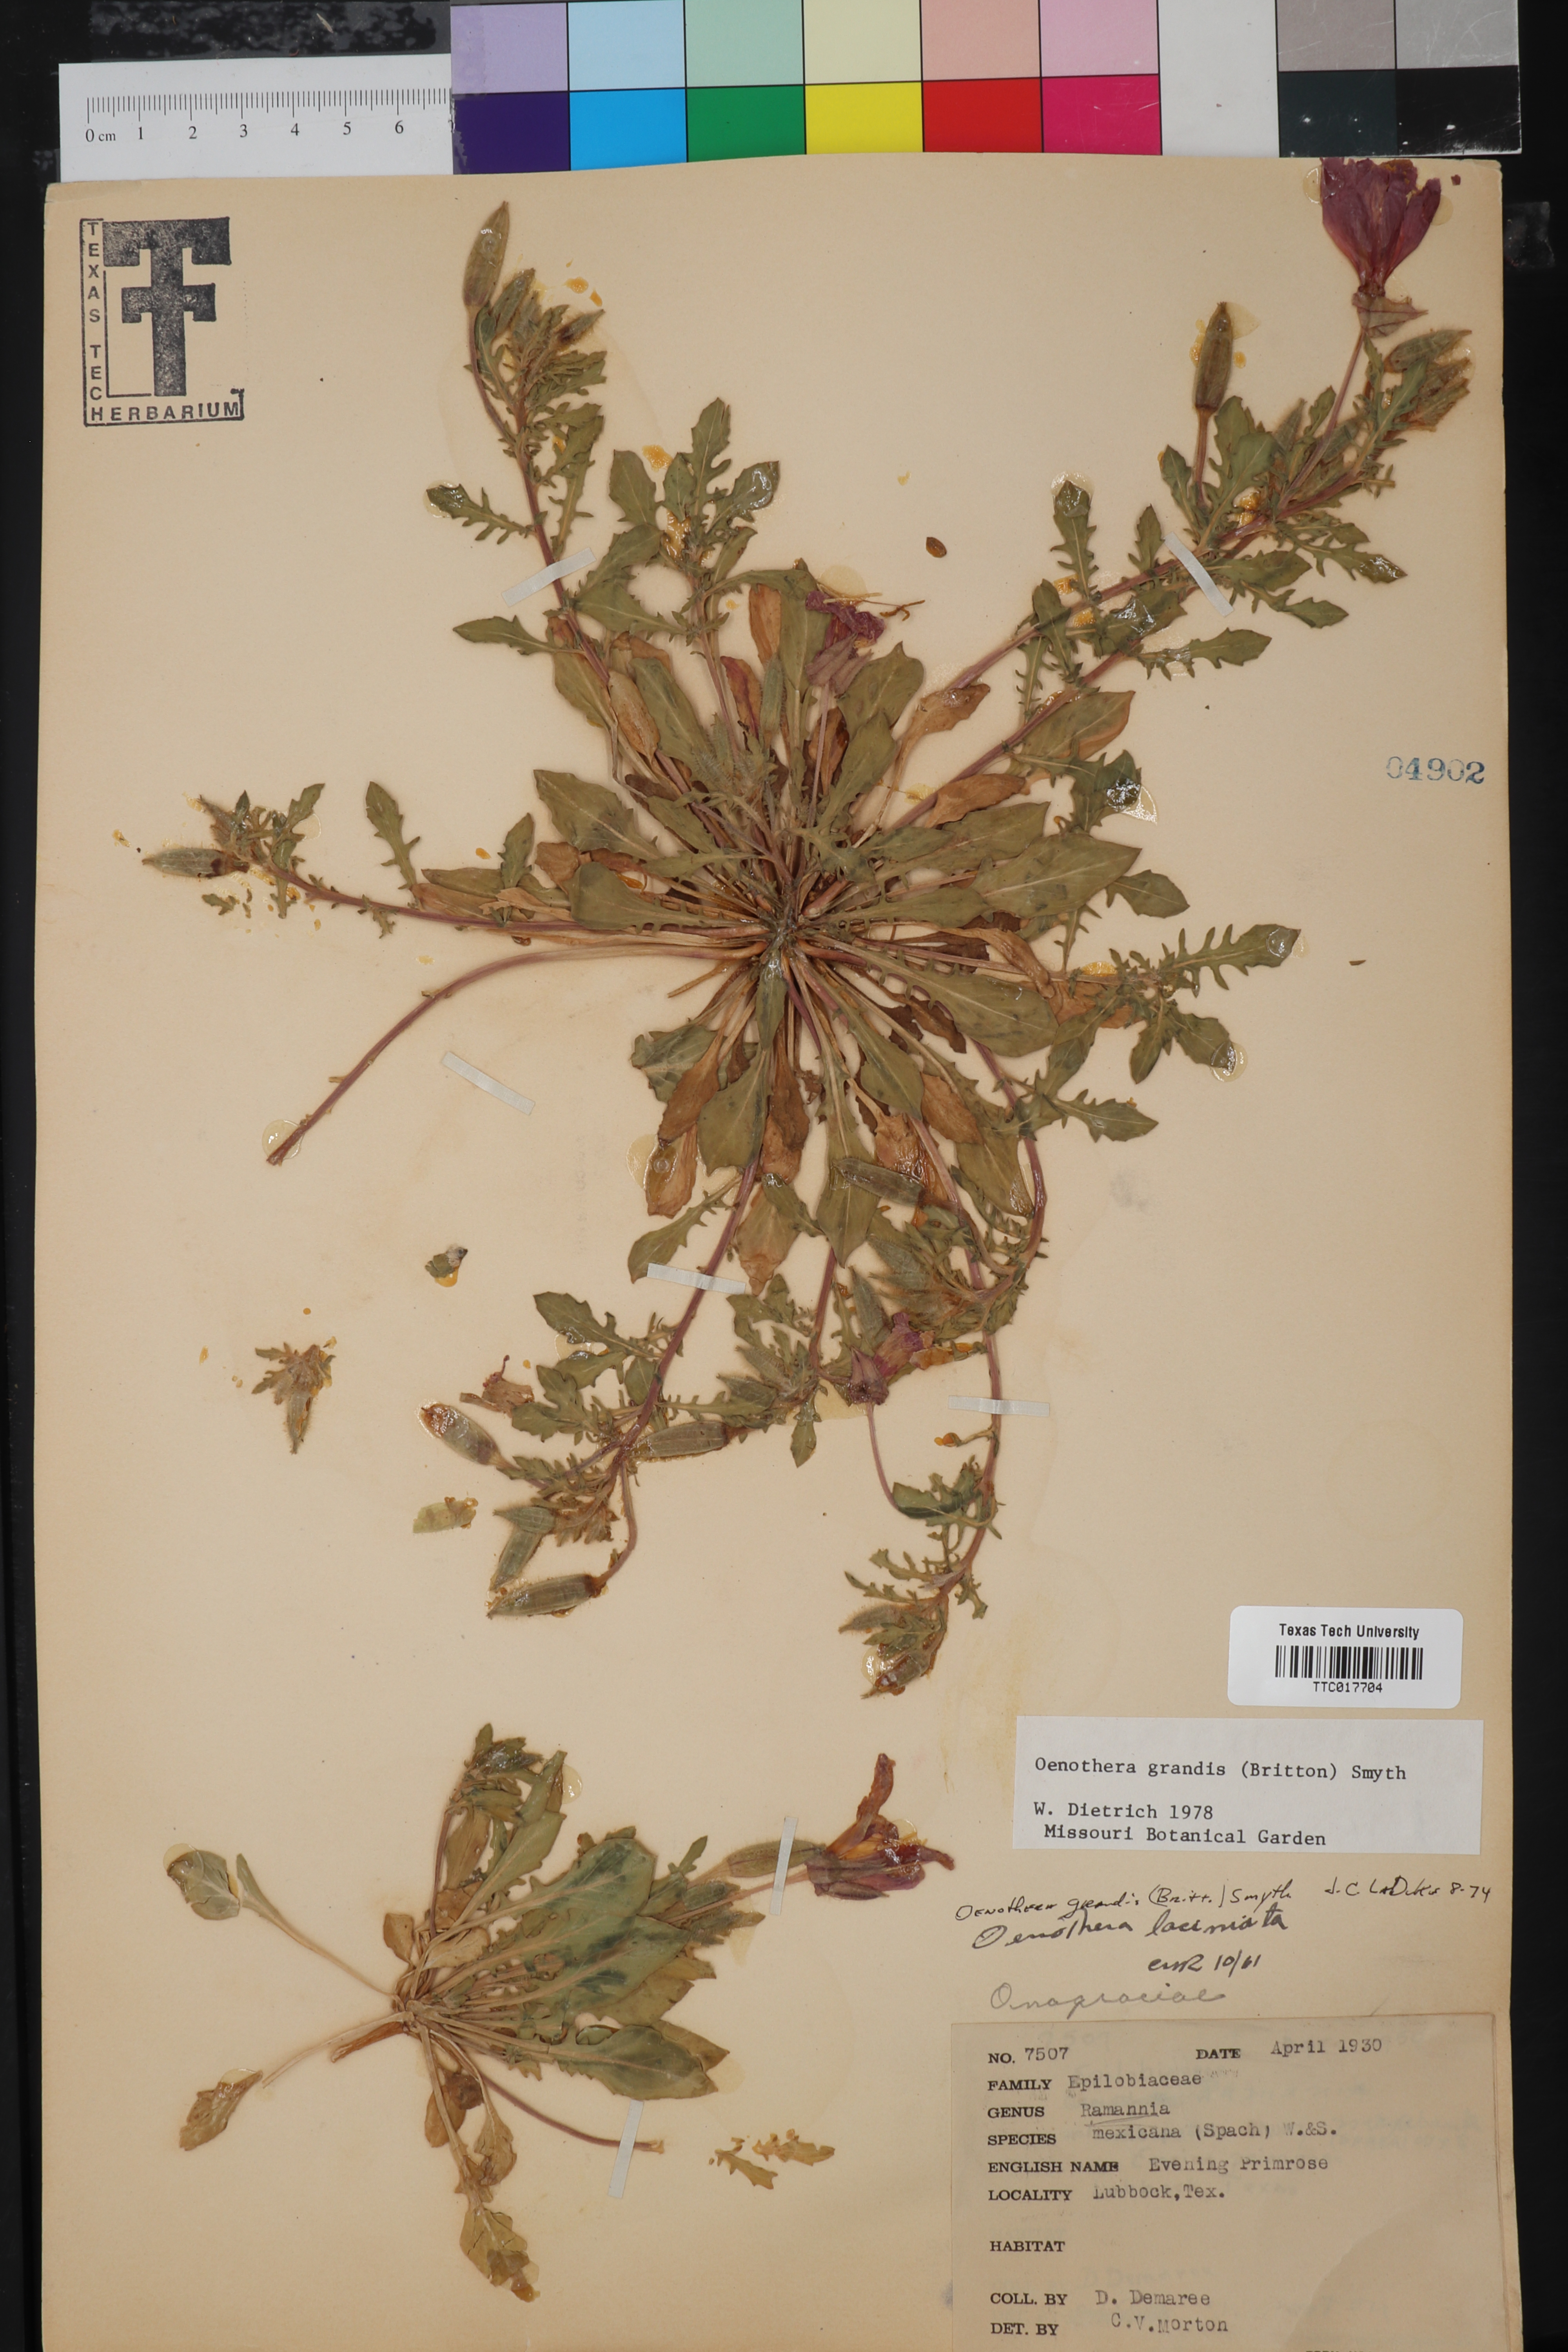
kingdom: Plantae
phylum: Tracheophyta
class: Magnoliopsida
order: Myrtales
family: Onagraceae
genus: Oenothera
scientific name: Oenothera grandis
